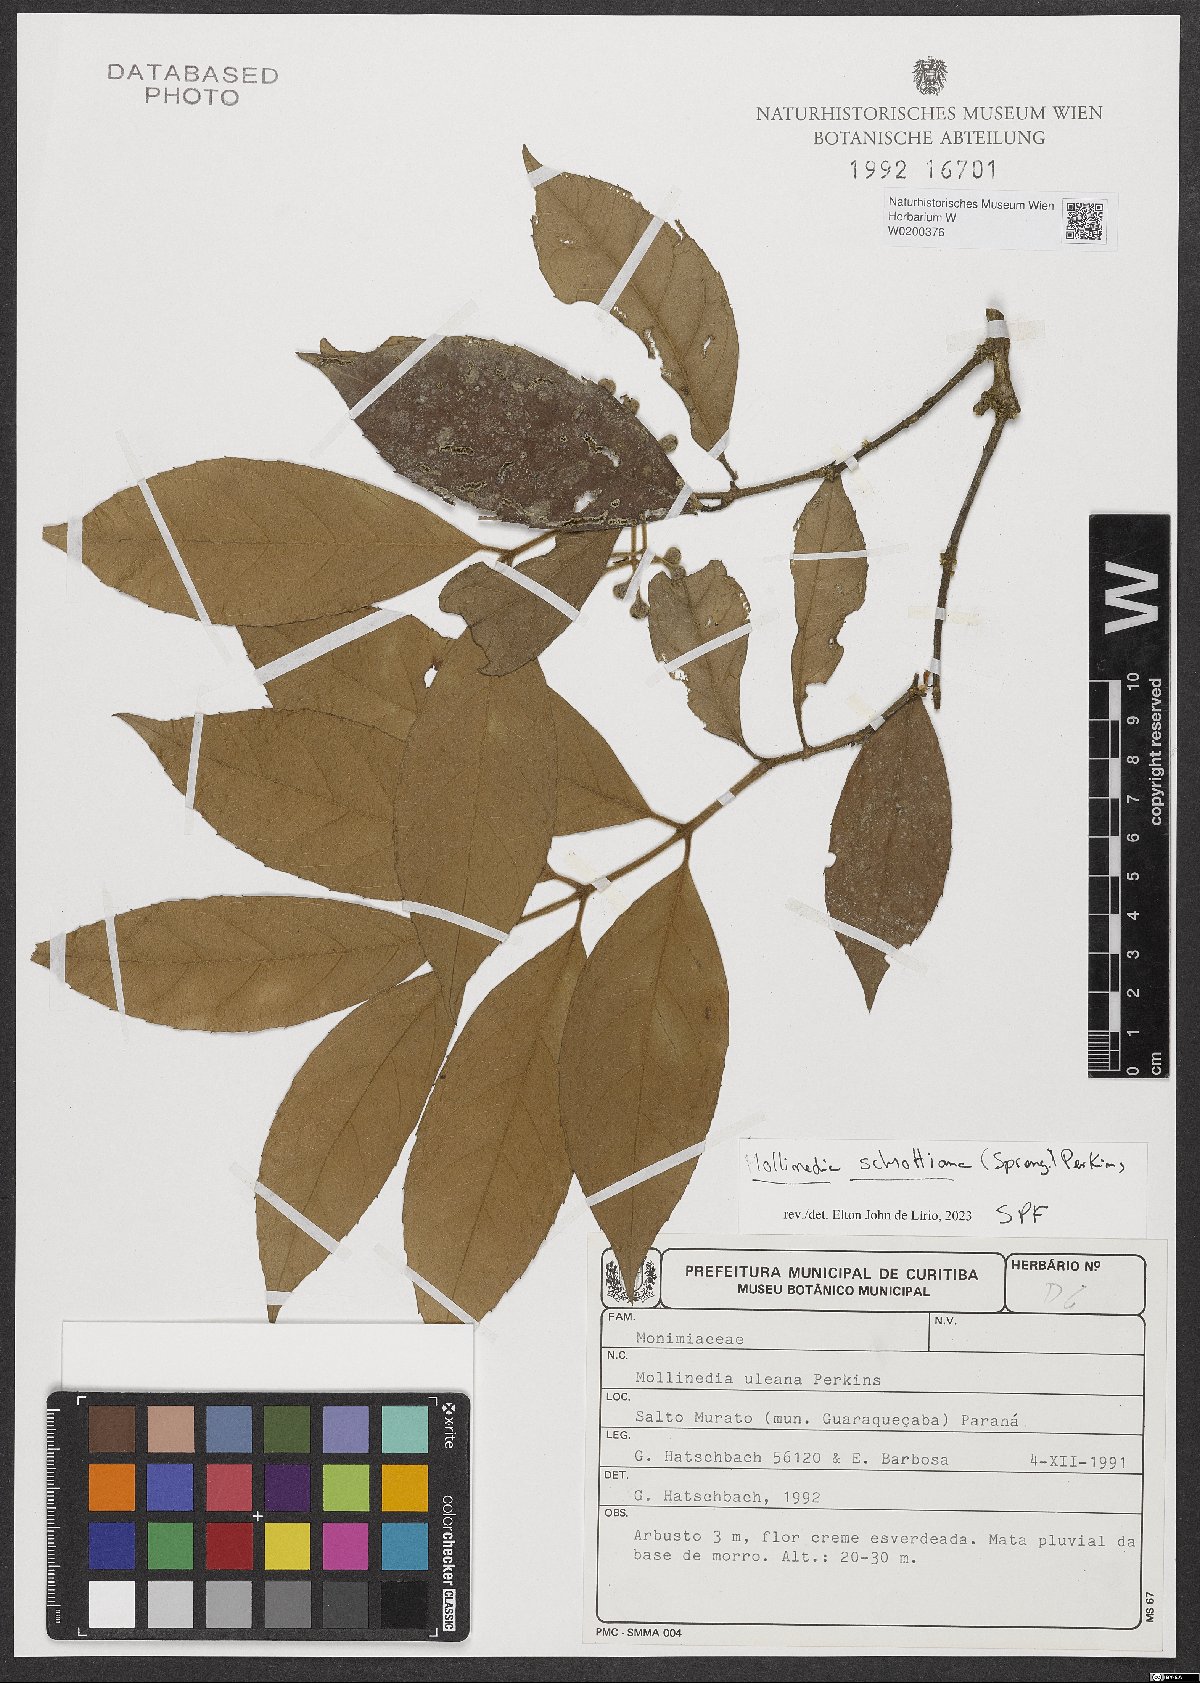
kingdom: Plantae
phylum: Tracheophyta
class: Magnoliopsida
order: Laurales
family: Monimiaceae
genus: Mollinedia
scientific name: Mollinedia umbellata
